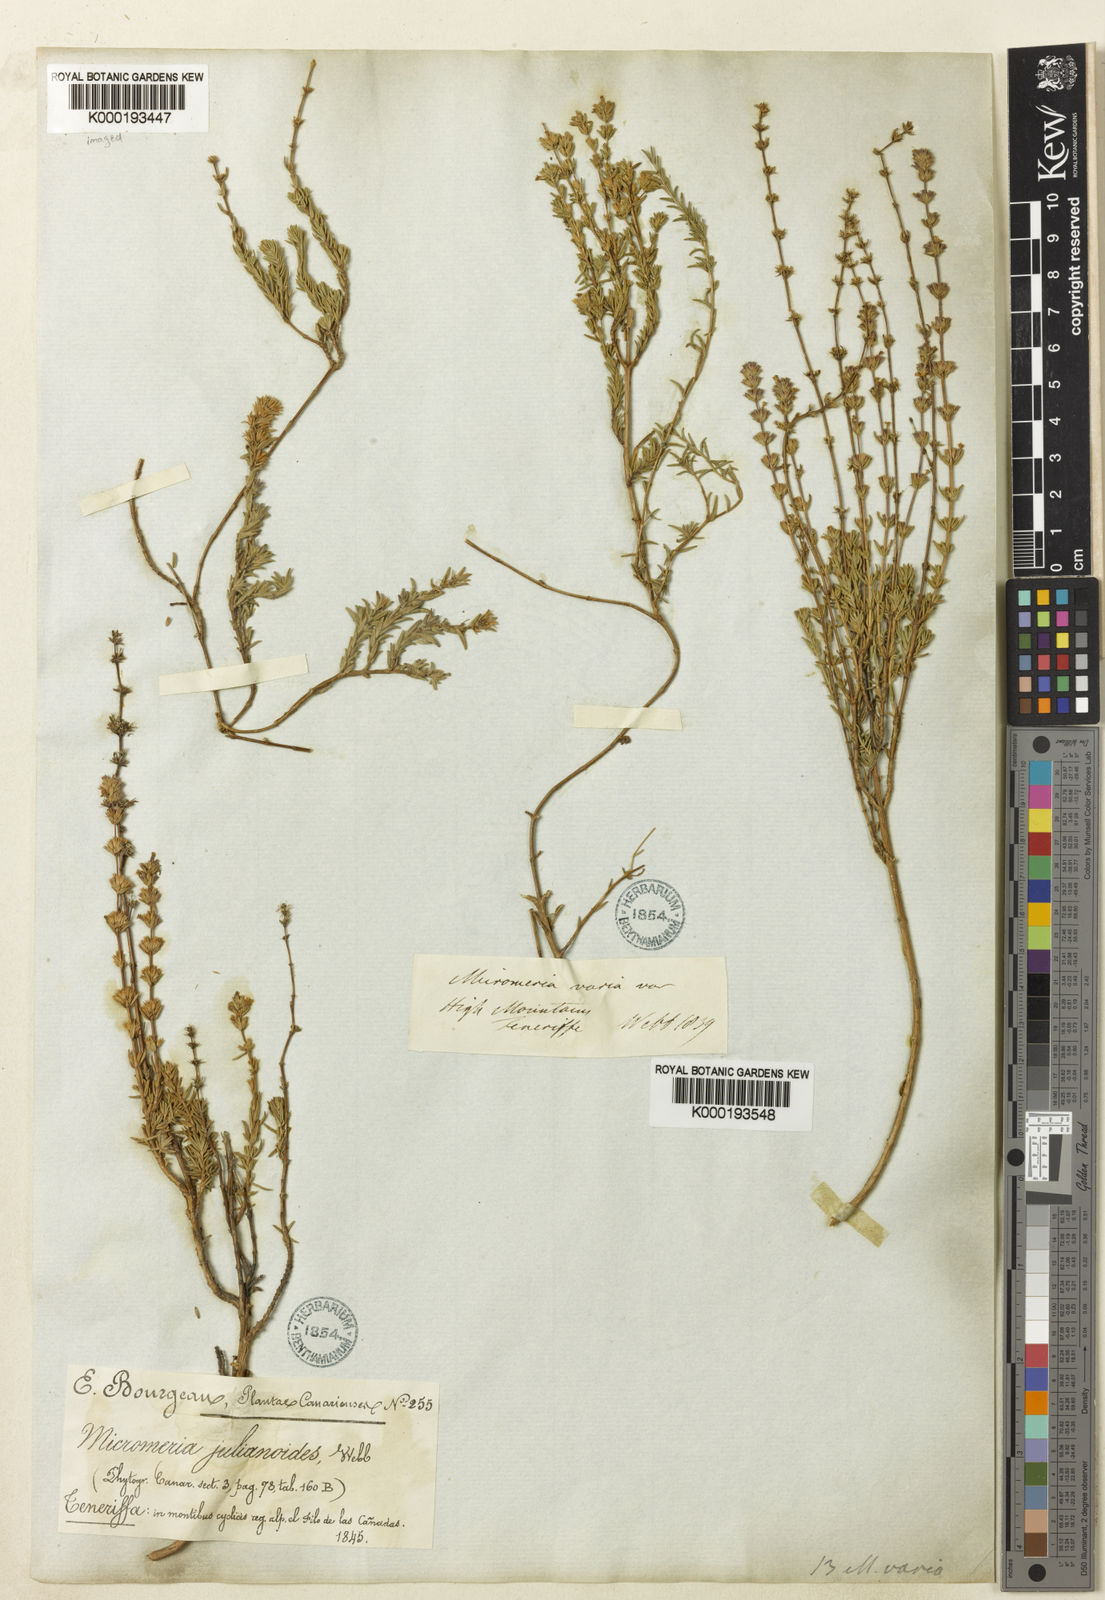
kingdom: Plantae
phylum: Tracheophyta
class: Magnoliopsida
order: Lamiales
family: Lamiaceae
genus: Micromeria
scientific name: Micromeria ericifolia
